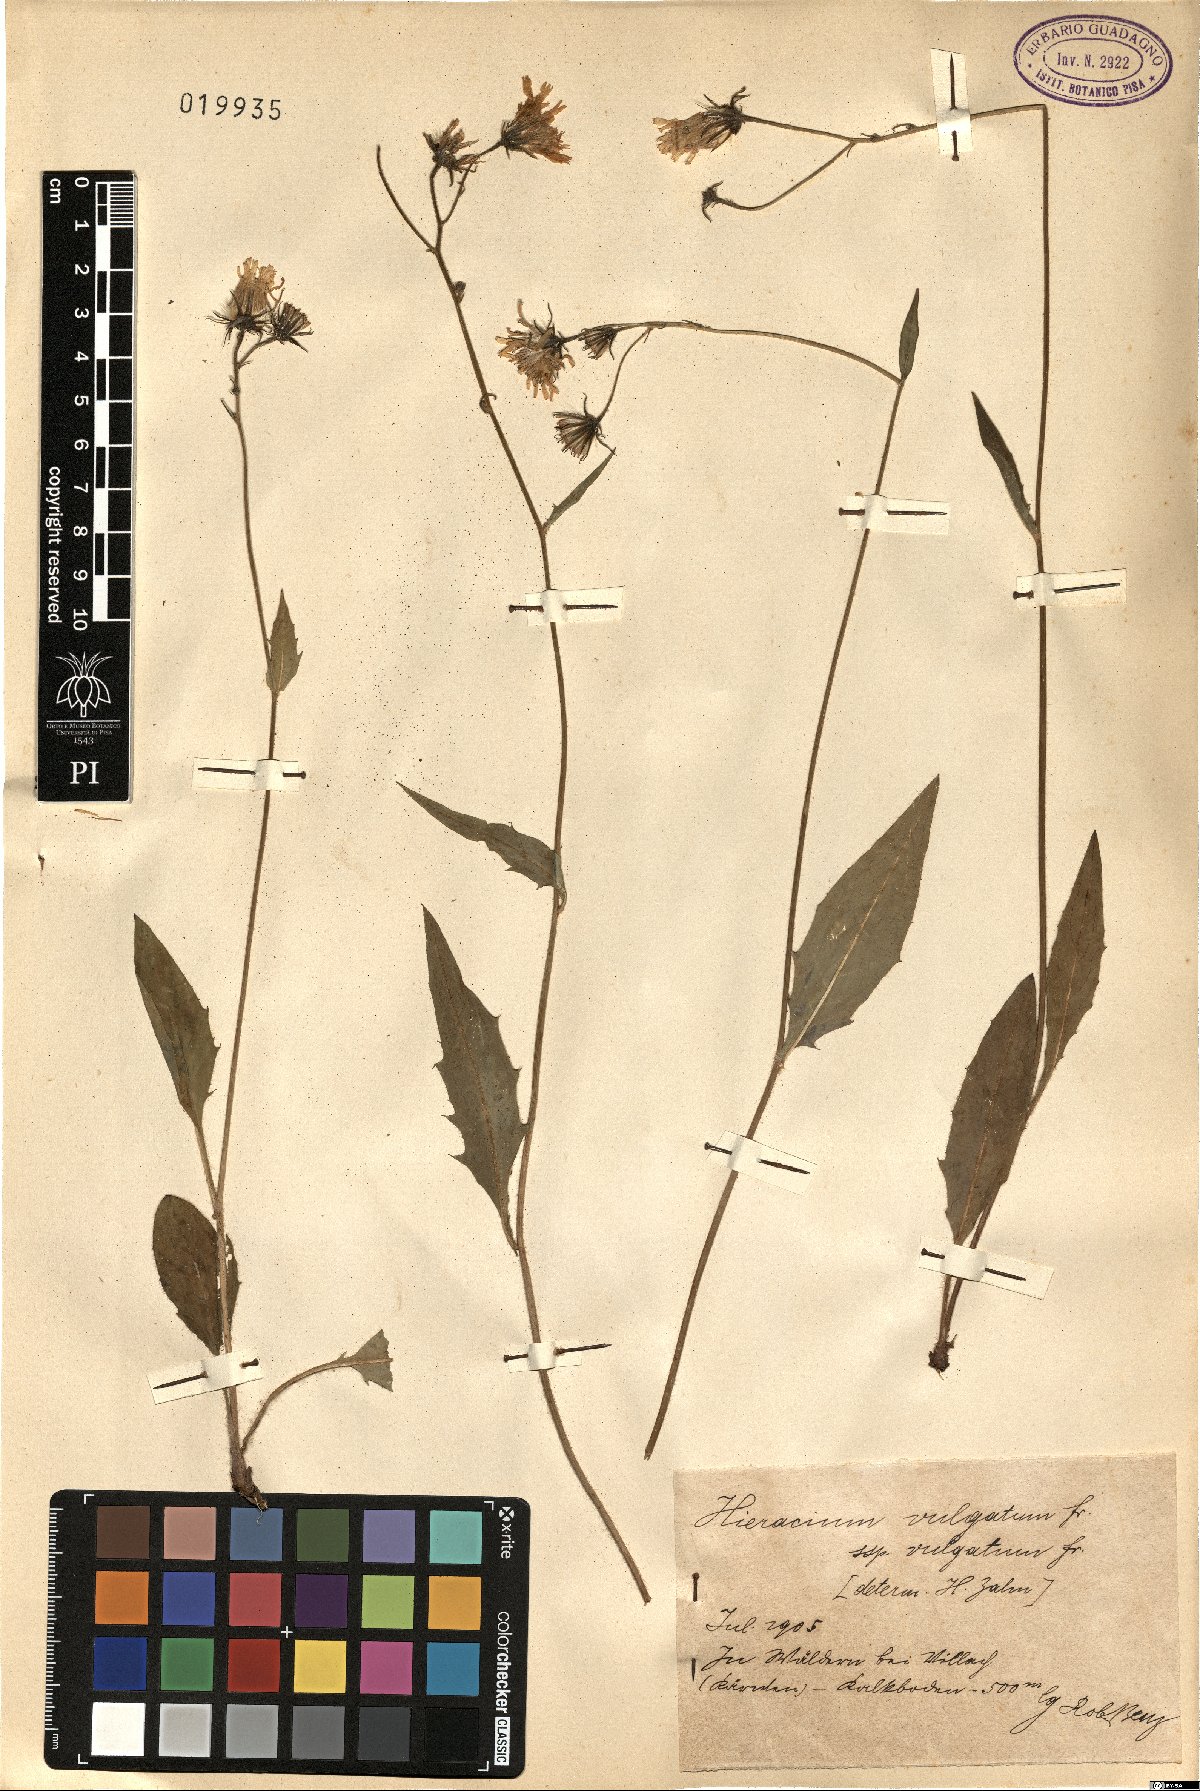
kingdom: Plantae
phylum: Tracheophyta
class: Magnoliopsida
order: Asterales
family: Asteraceae
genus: Hieracium
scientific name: Hieracium lachenalii
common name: Common hawkweed
